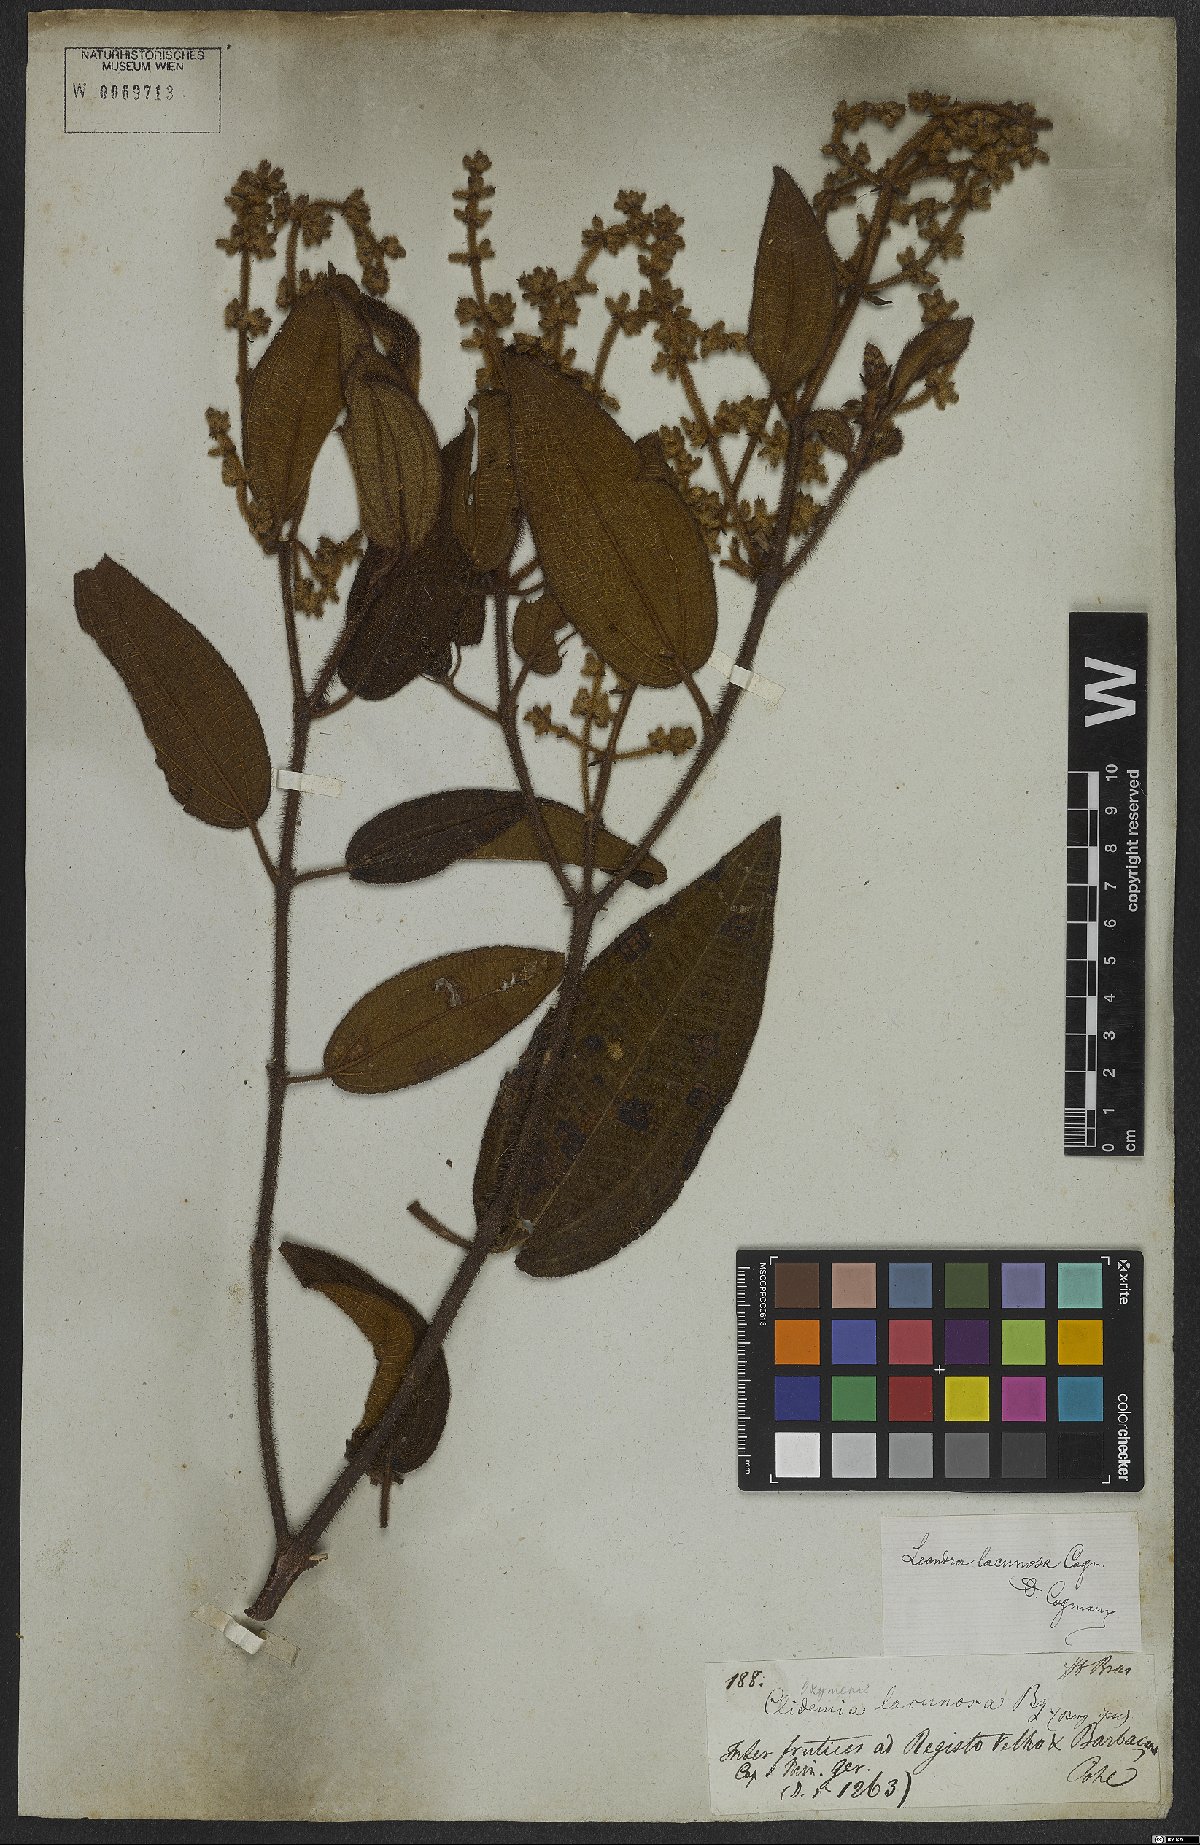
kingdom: Plantae
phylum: Tracheophyta
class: Magnoliopsida
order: Myrtales
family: Melastomataceae
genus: Miconia
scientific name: Miconia lacunosa
